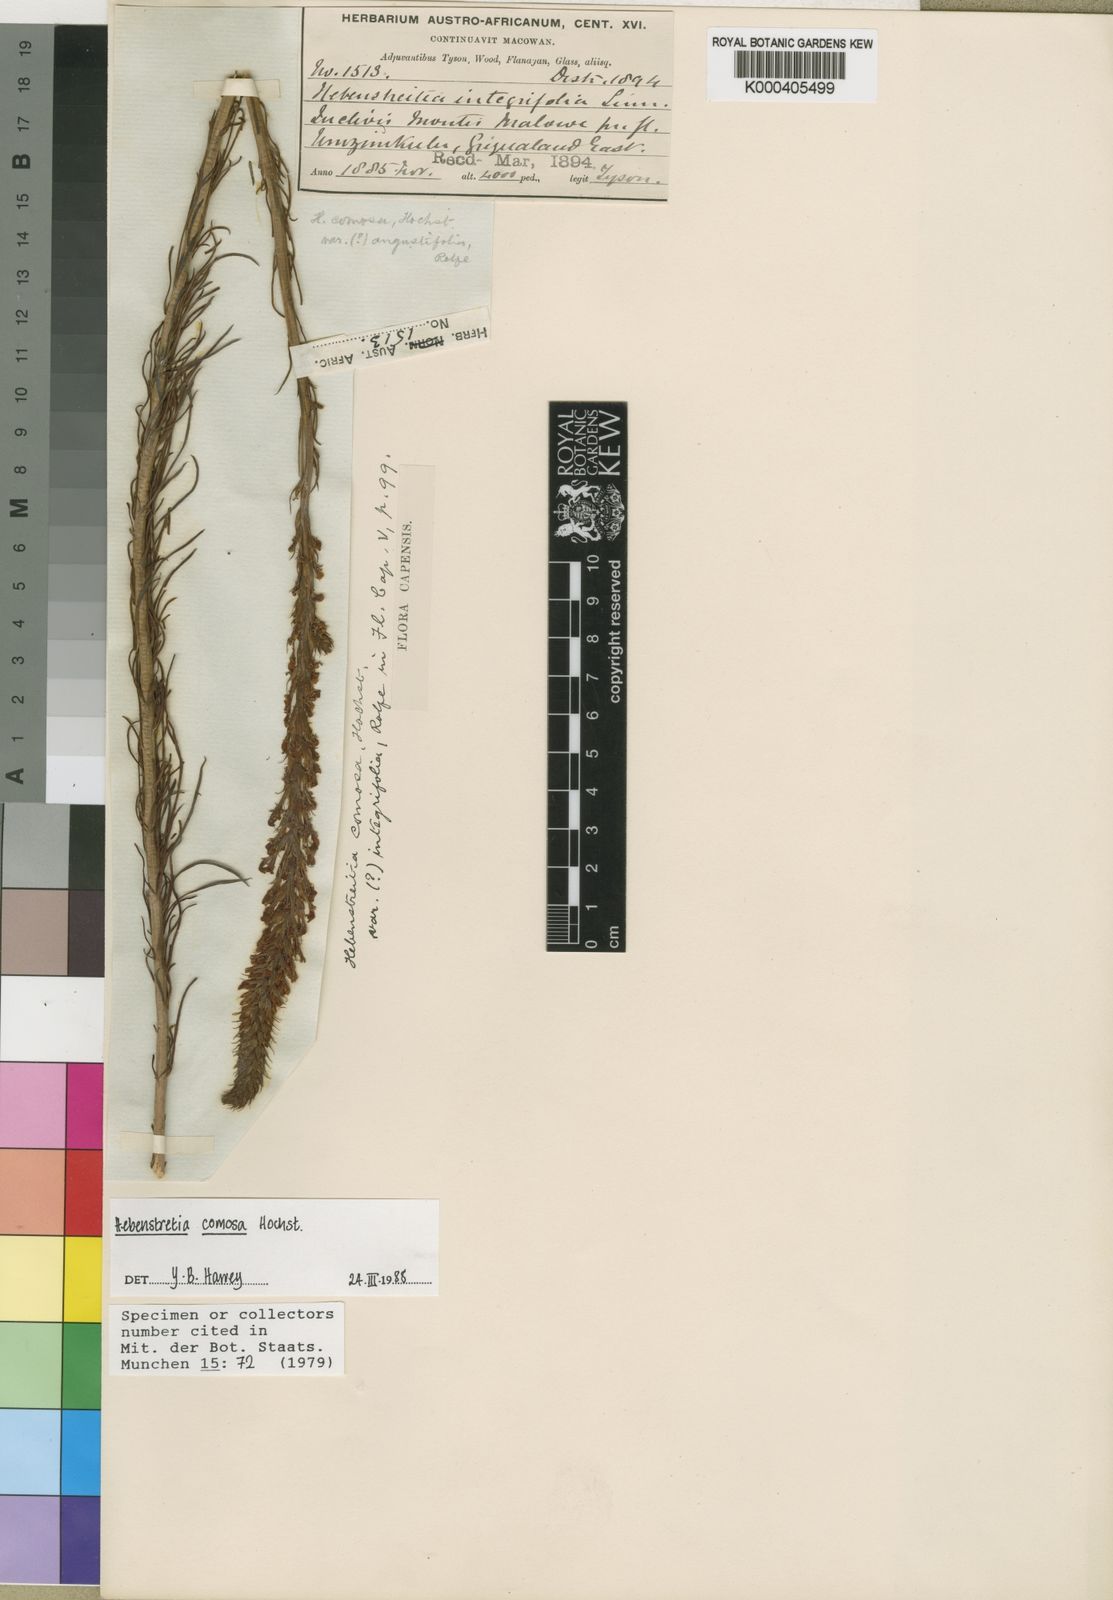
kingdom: Plantae
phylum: Tracheophyta
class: Magnoliopsida
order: Lamiales
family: Scrophulariaceae
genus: Hebenstretia
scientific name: Hebenstretia comosa
